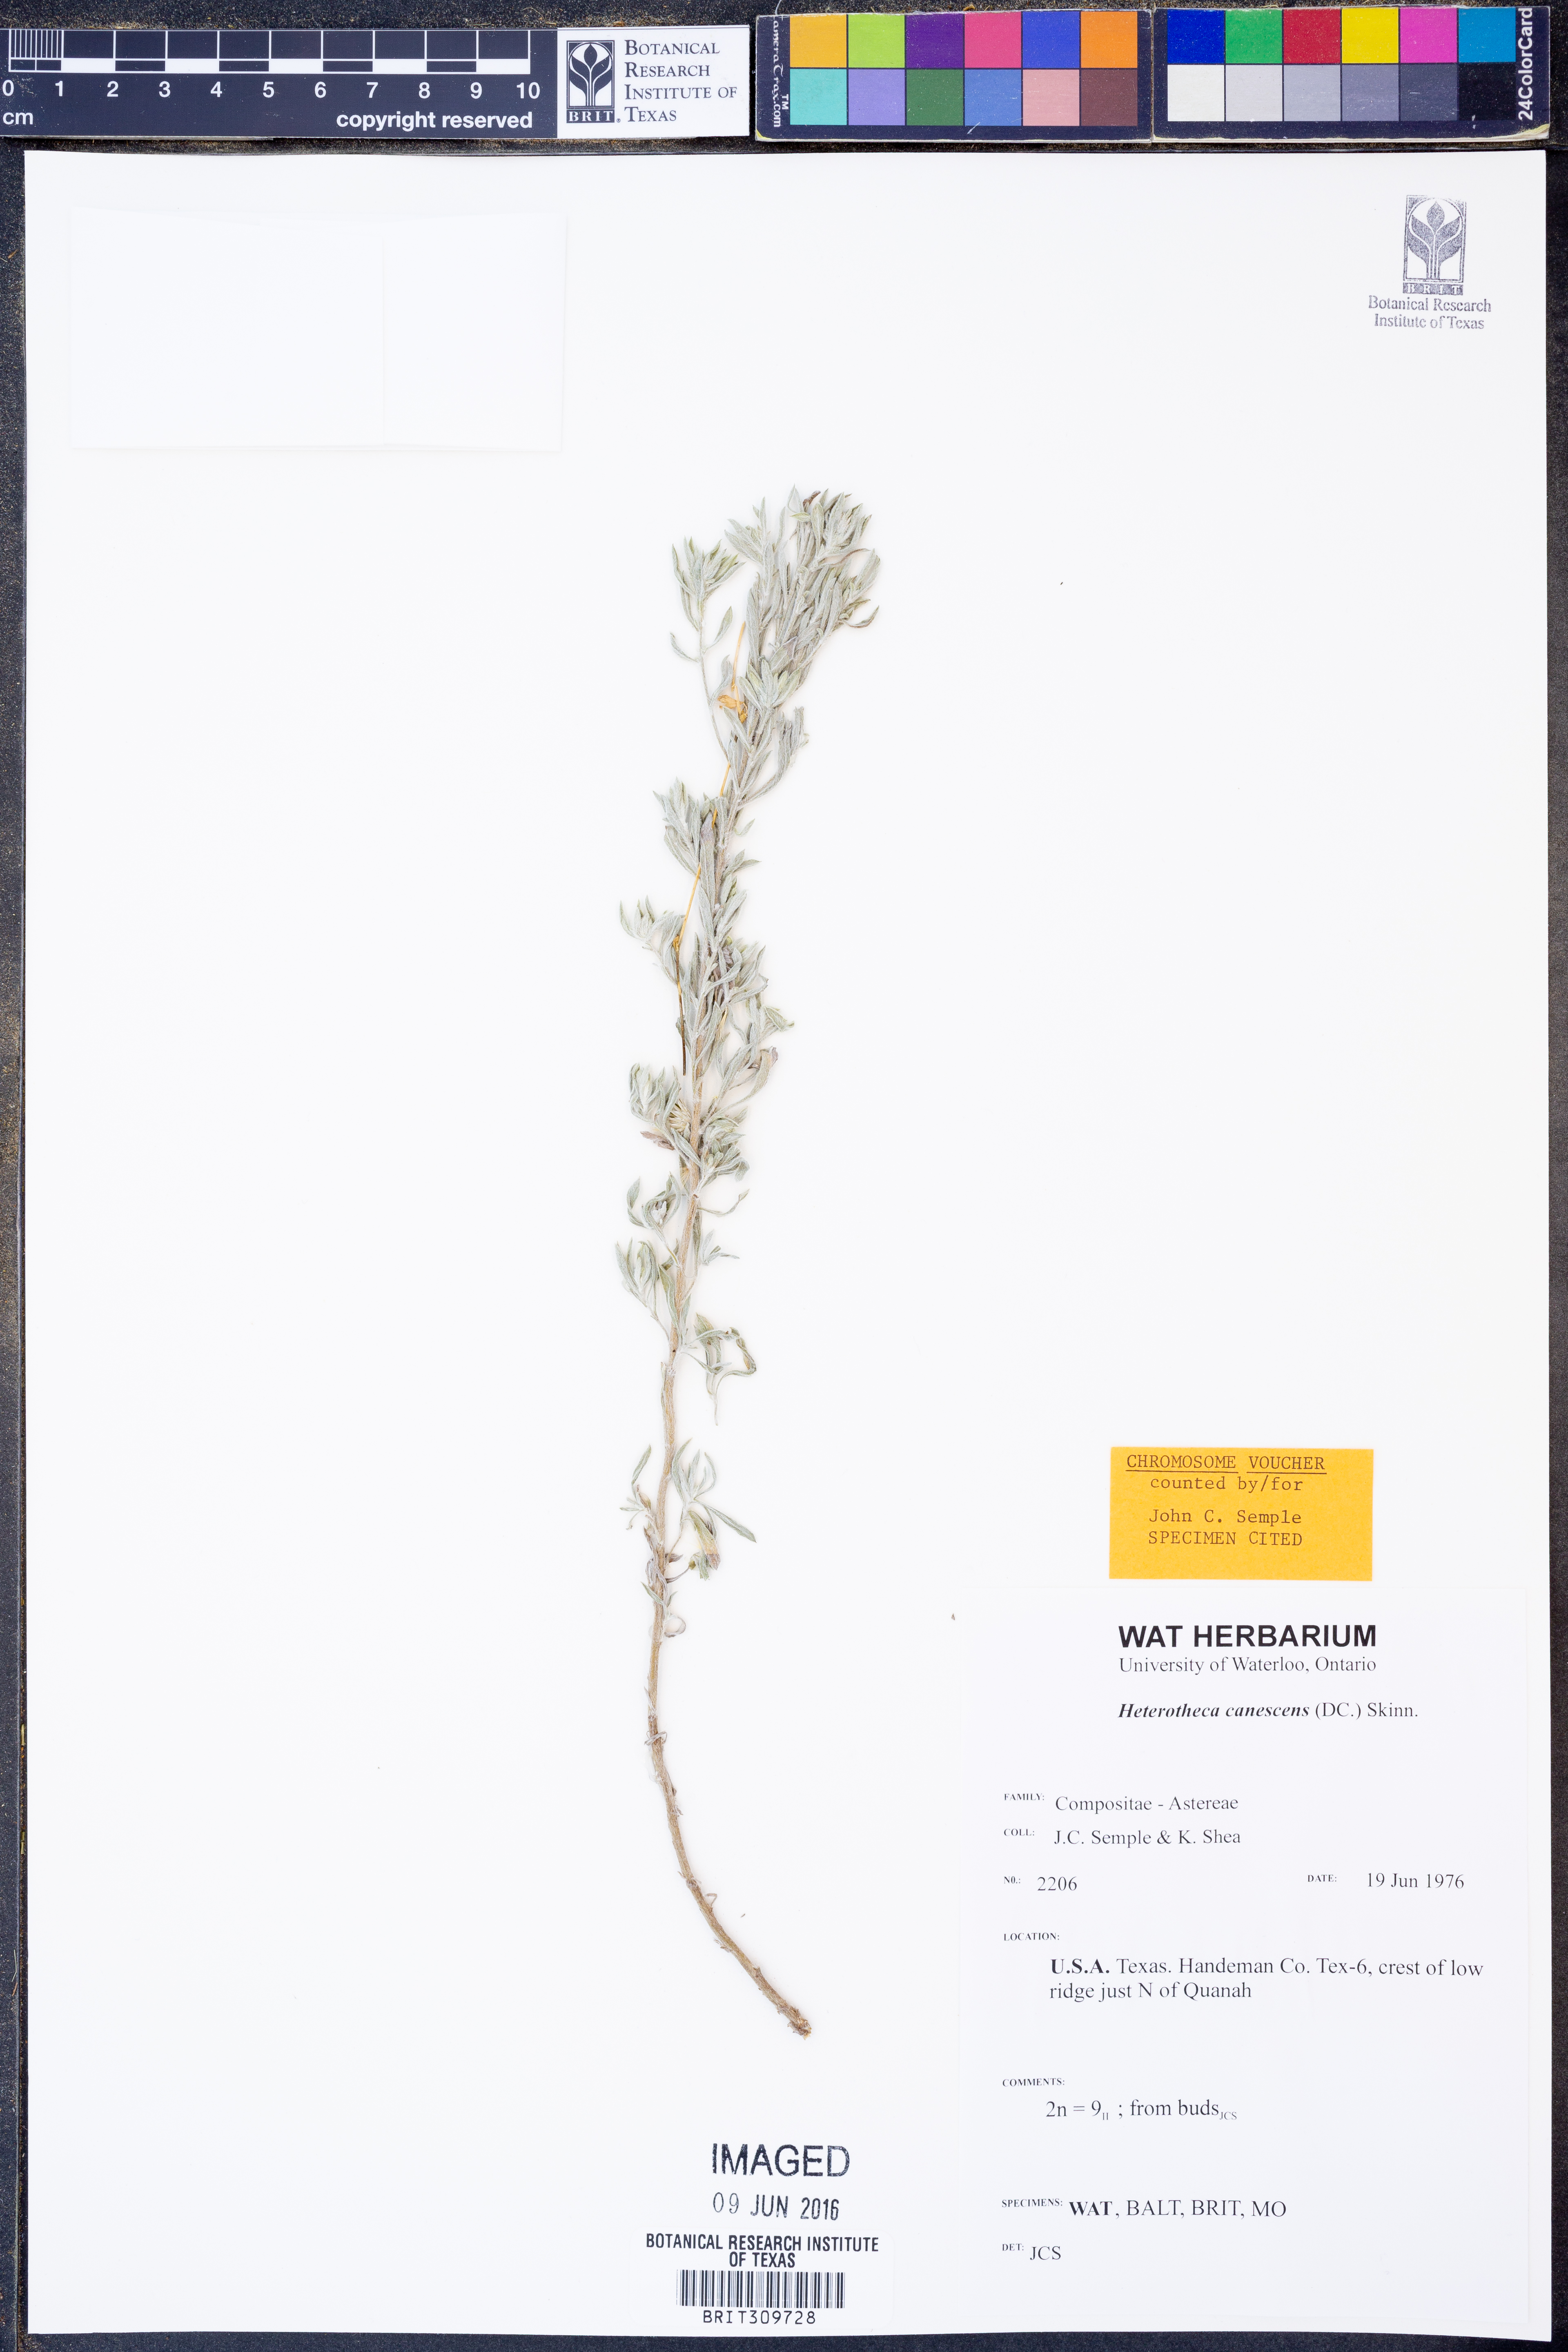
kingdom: Plantae
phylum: Tracheophyta
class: Magnoliopsida
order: Asterales
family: Asteraceae
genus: Heterotheca
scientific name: Heterotheca canescens
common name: Hoary golden-aster
